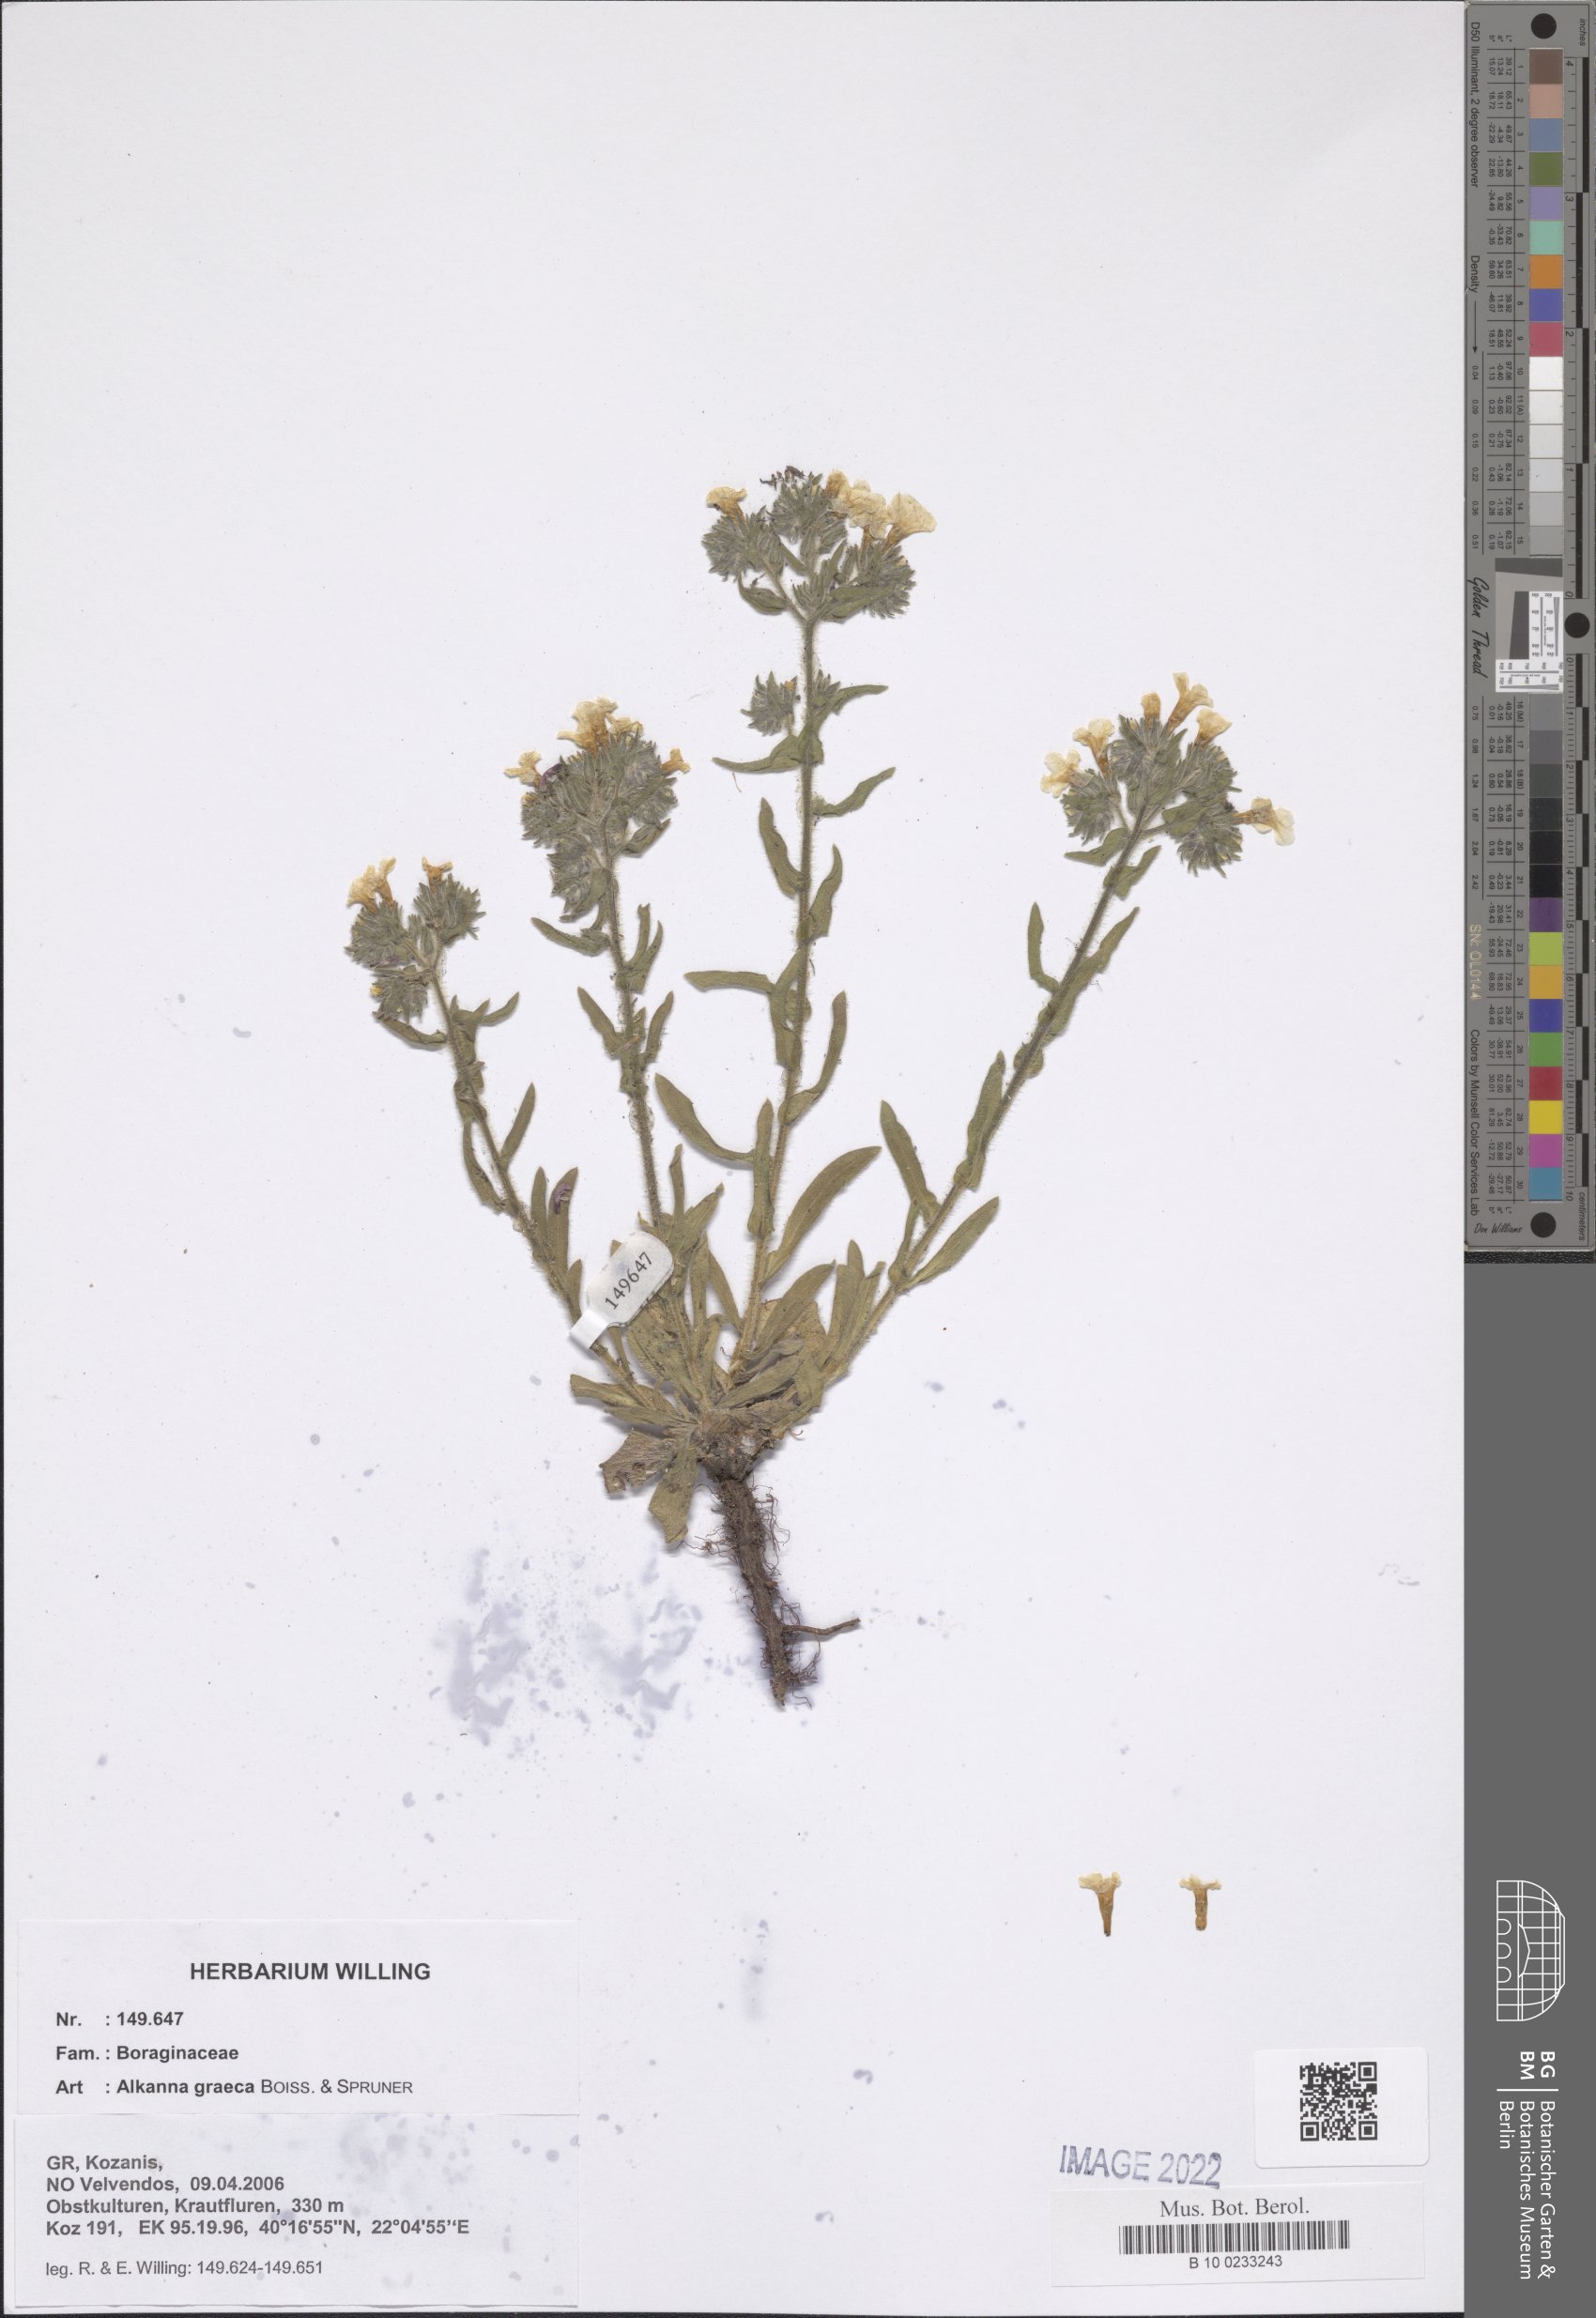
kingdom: Plantae
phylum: Tracheophyta
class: Magnoliopsida
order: Boraginales
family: Boraginaceae
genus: Alkanna
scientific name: Alkanna graeca
